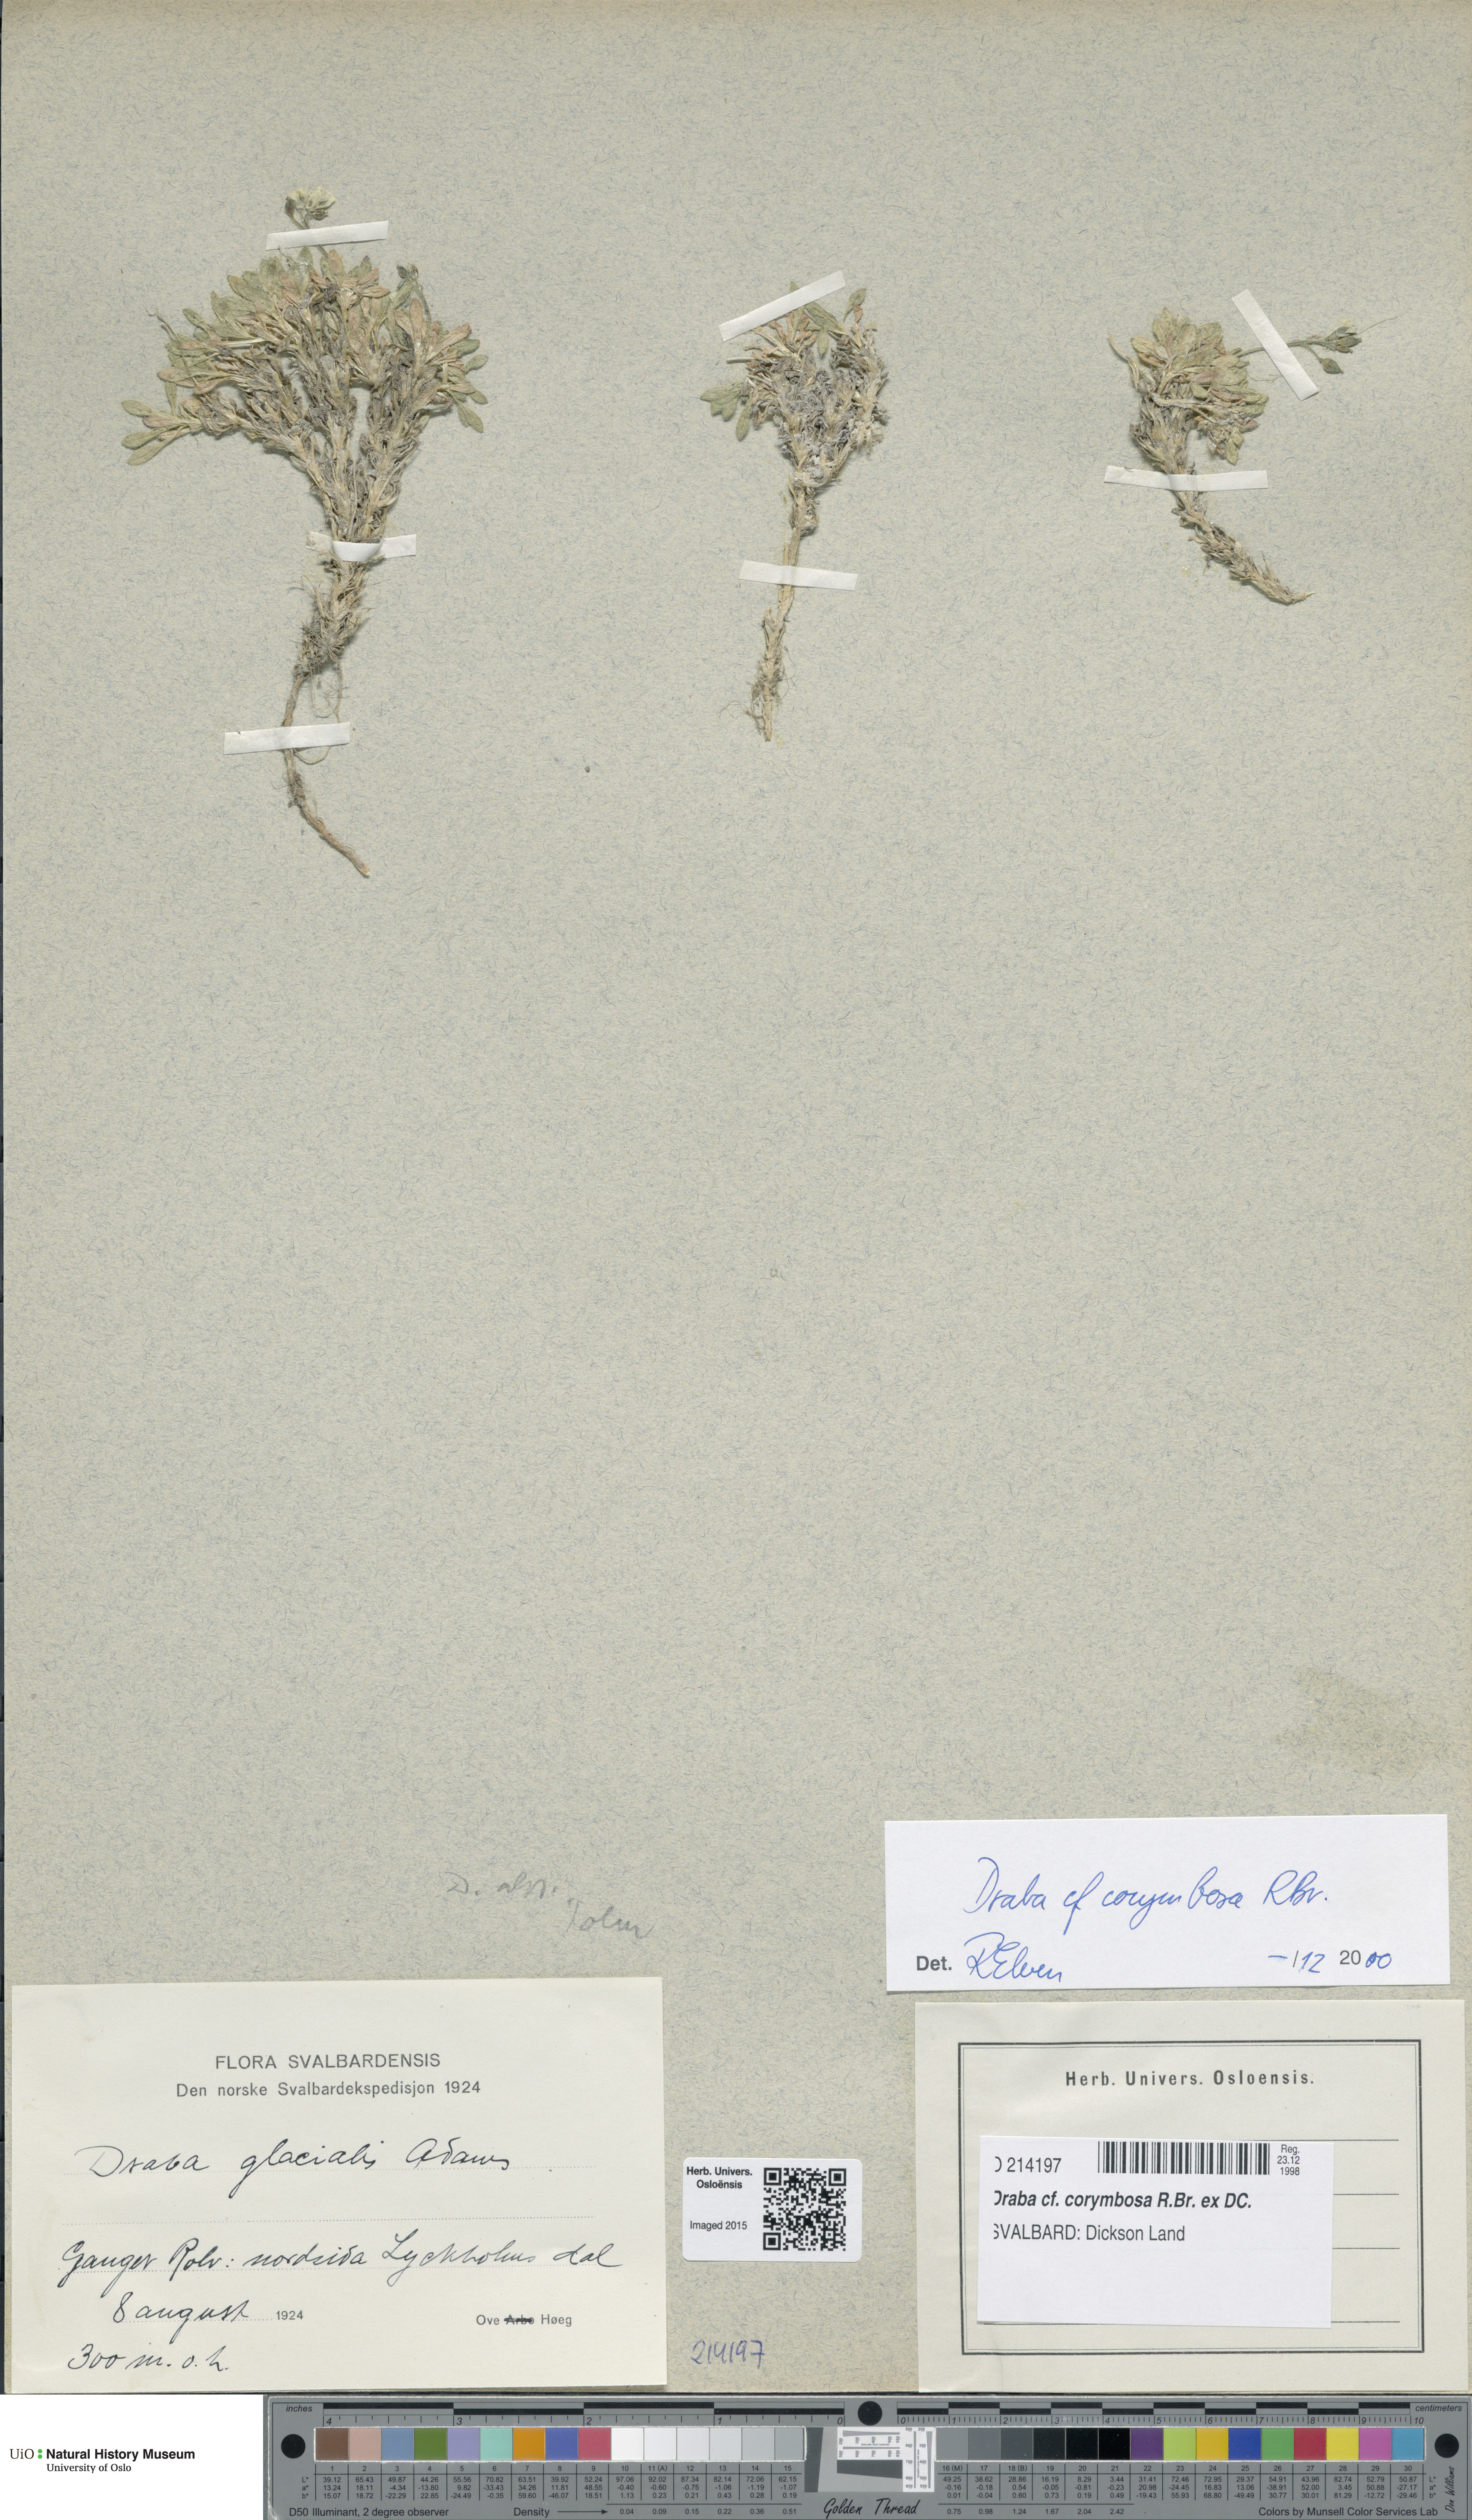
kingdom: Plantae
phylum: Tracheophyta
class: Magnoliopsida
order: Brassicales
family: Brassicaceae
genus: Draba
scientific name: Draba corymbosa
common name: Cushion whitlow-grass
